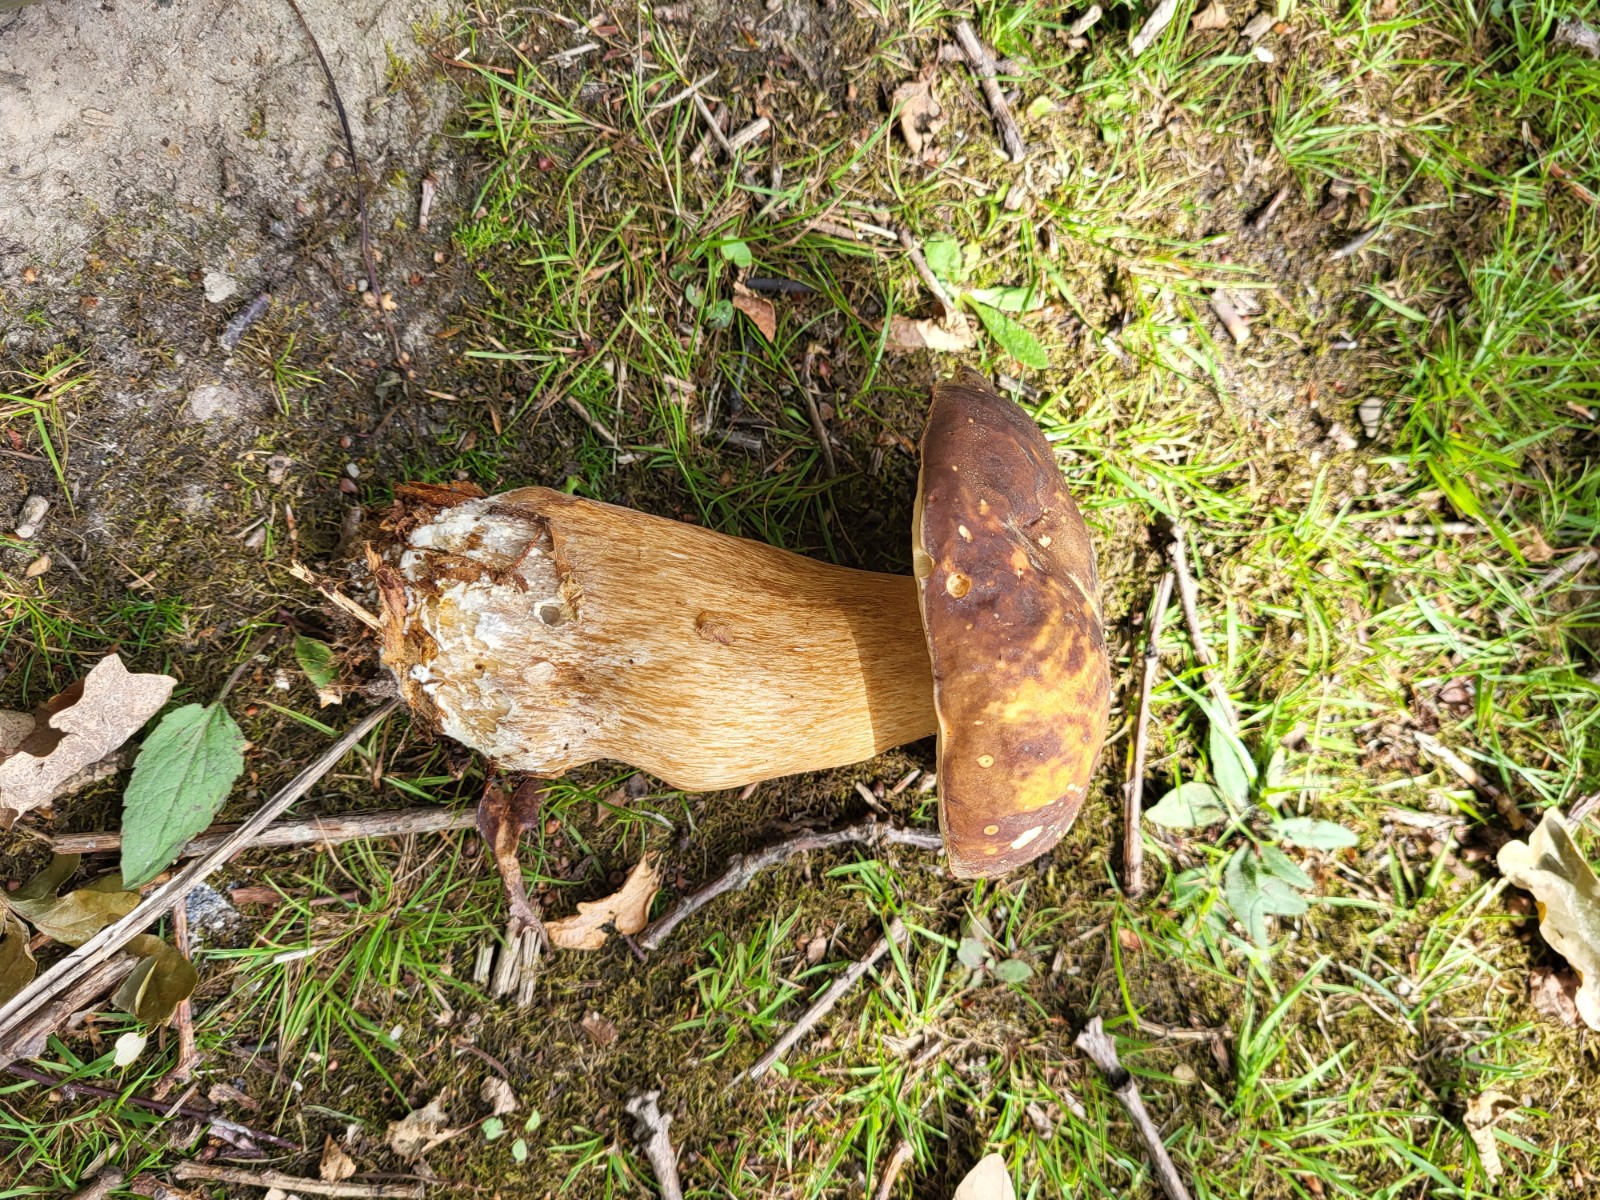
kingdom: Fungi
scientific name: Fungi
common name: bronze-rørhat
